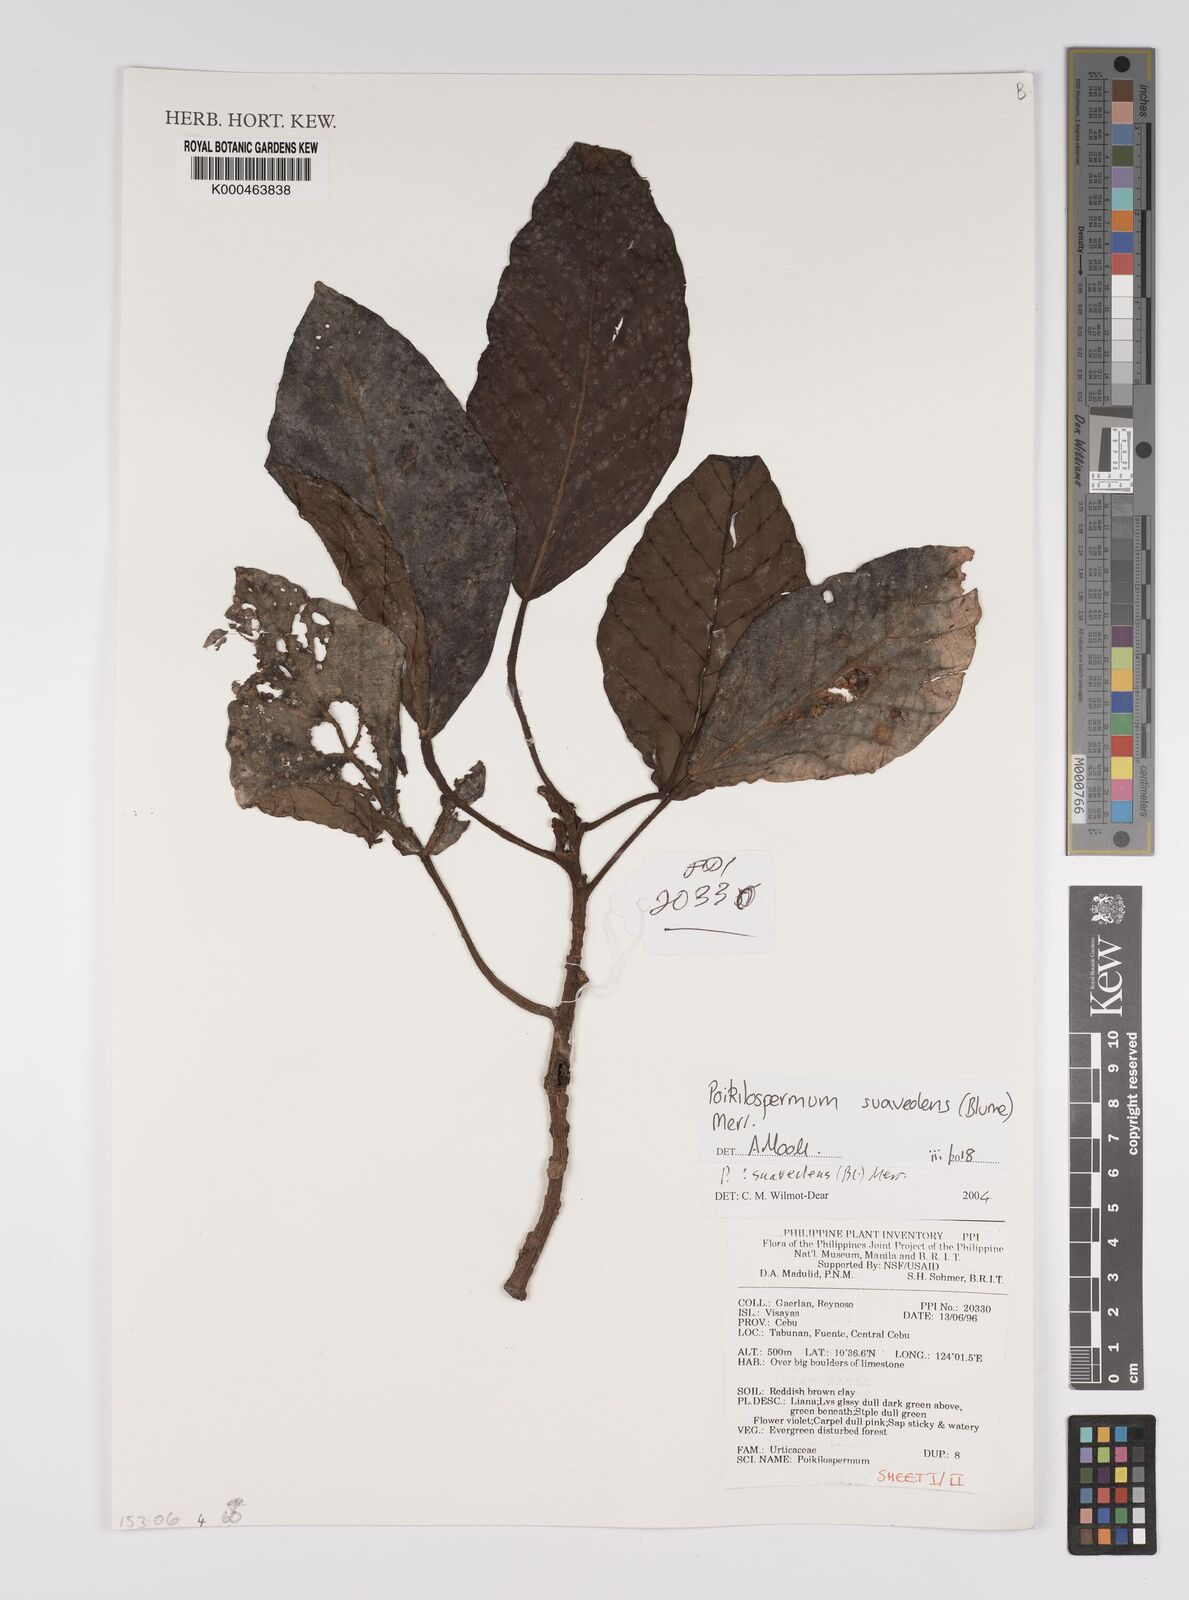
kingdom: Plantae
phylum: Tracheophyta
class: Magnoliopsida
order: Rosales
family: Urticaceae
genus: Poikilospermum
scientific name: Poikilospermum suaveolens
